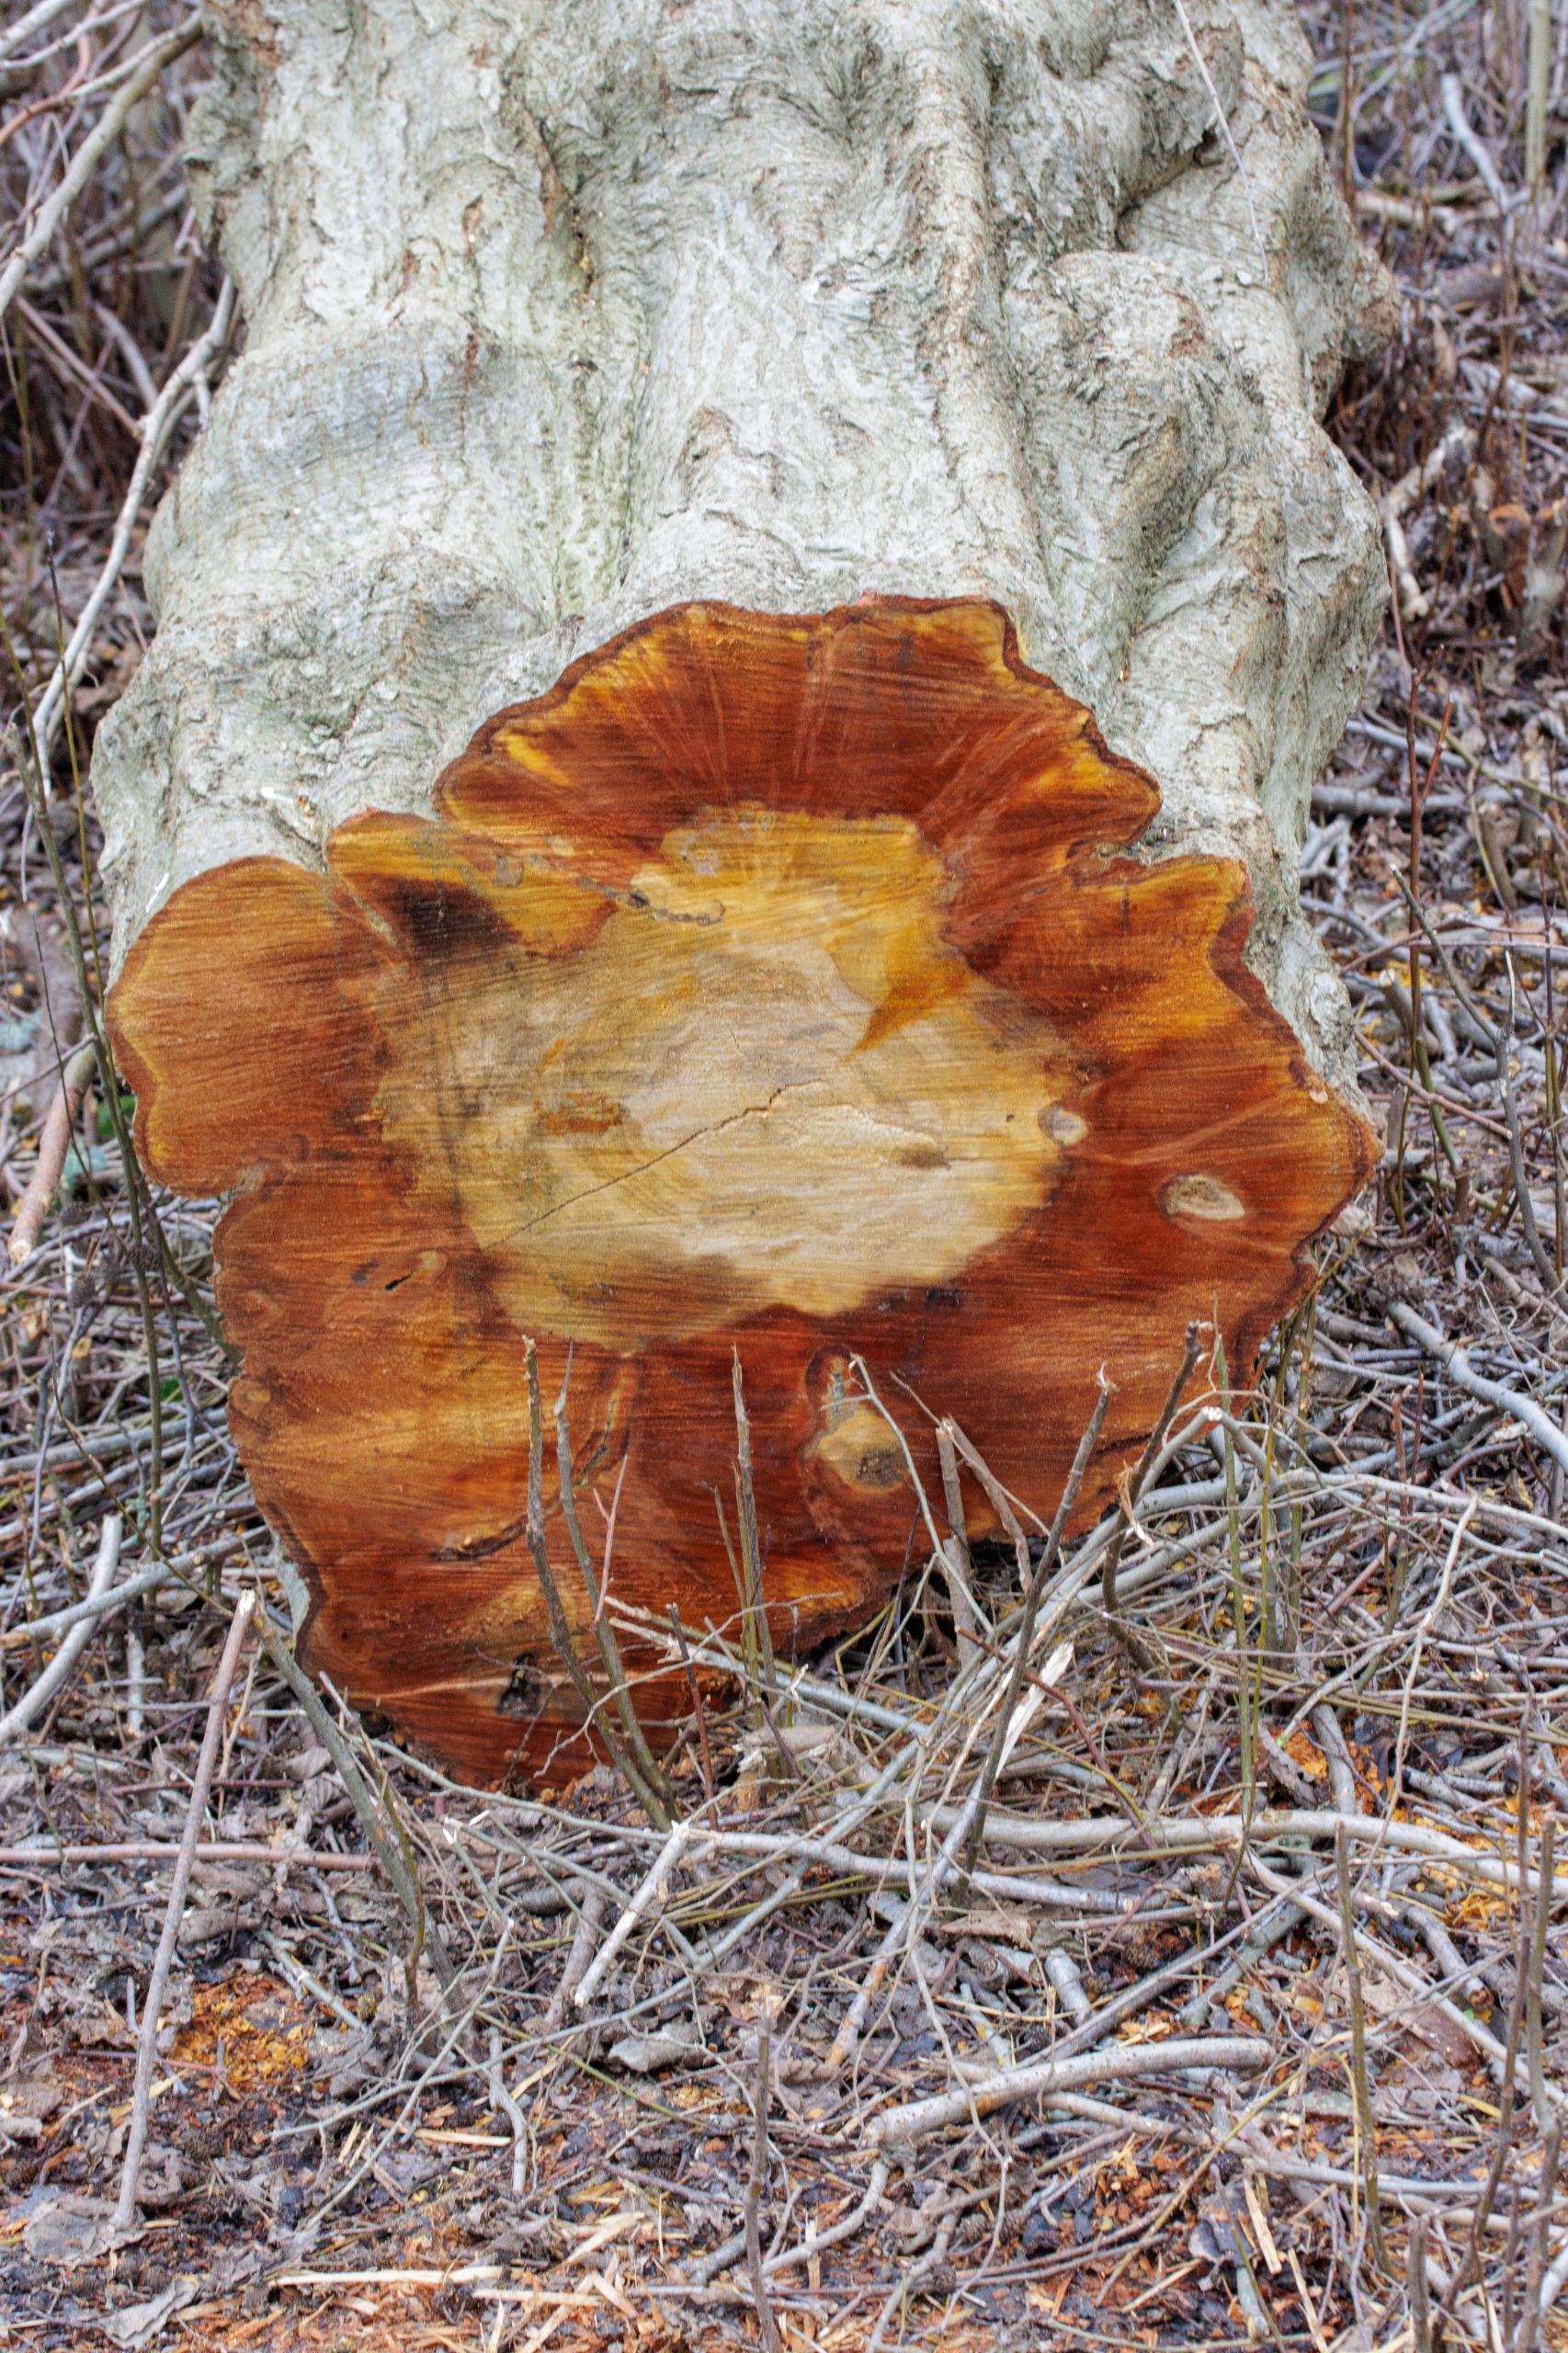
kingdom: Plantae
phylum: Tracheophyta
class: Magnoliopsida
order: Fagales
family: Betulaceae
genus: Alnus
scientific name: Alnus glutinosa
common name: Rød-el
